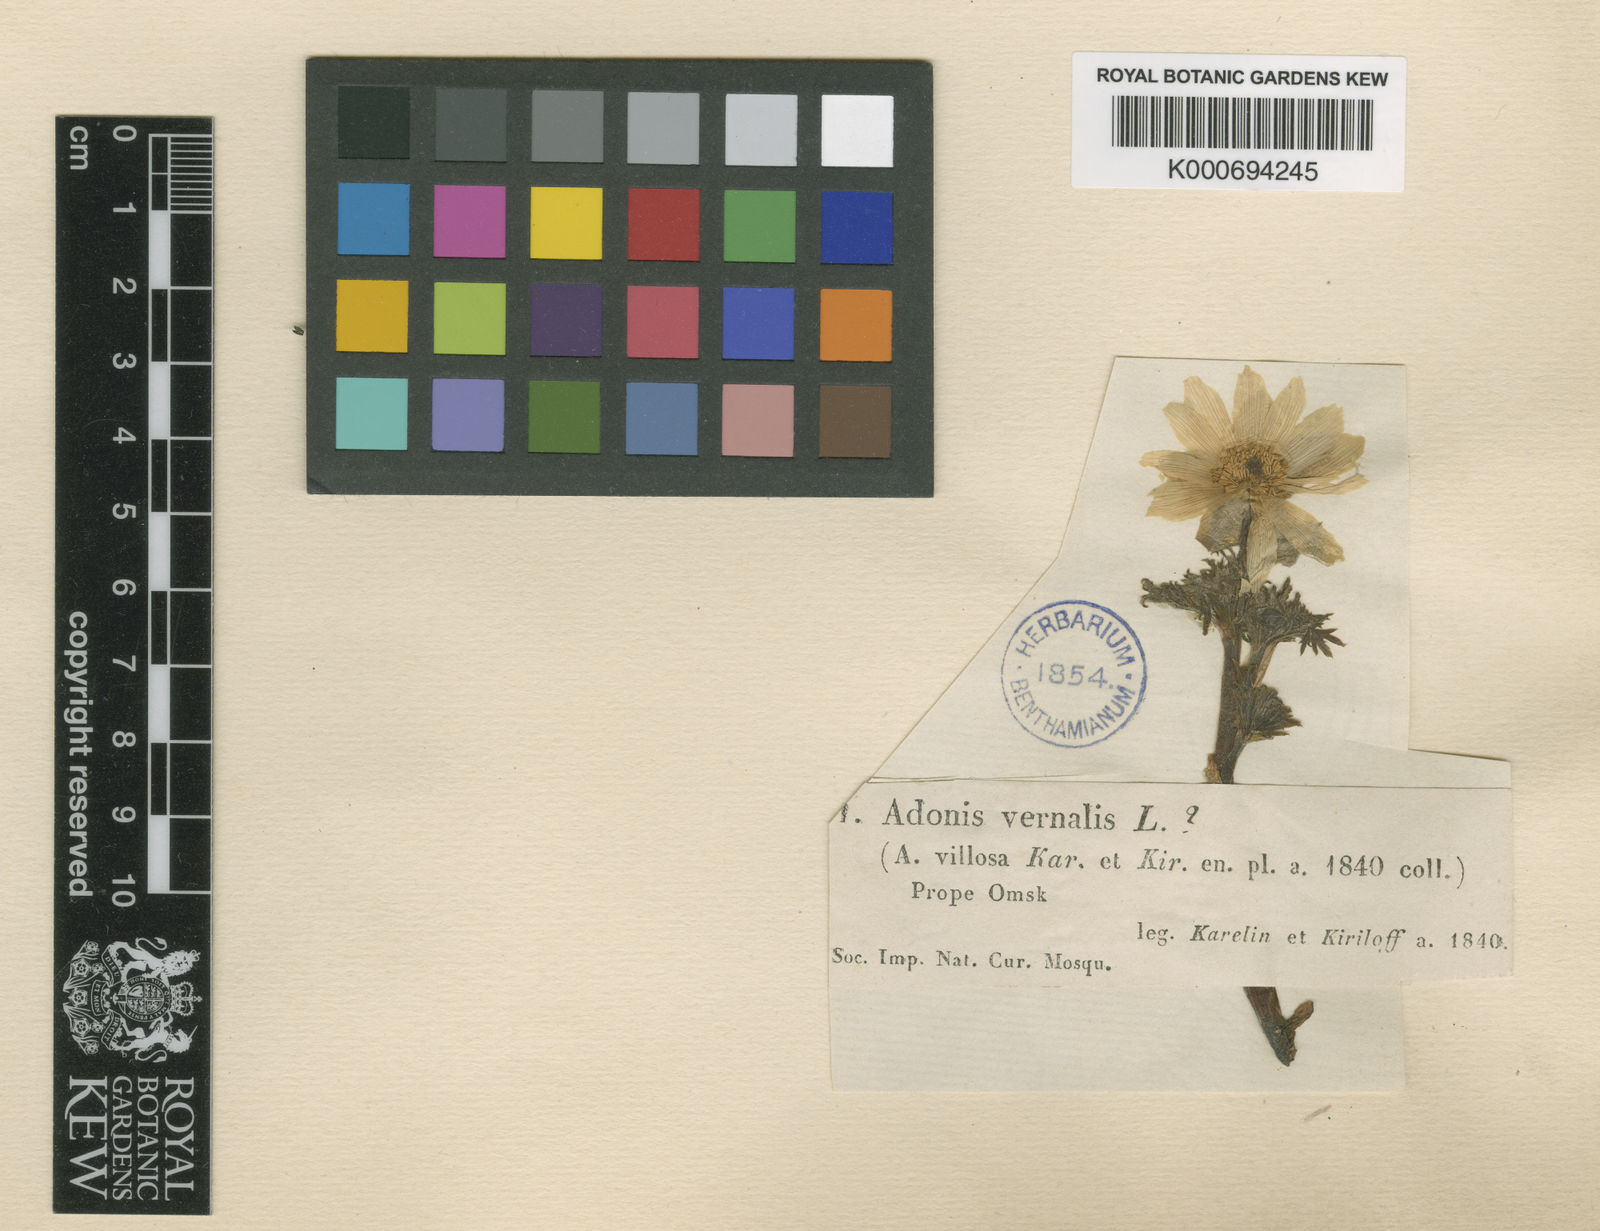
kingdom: Plantae
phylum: Tracheophyta
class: Magnoliopsida
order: Ranunculales
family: Ranunculaceae
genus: Adonis
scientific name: Adonis villosa
